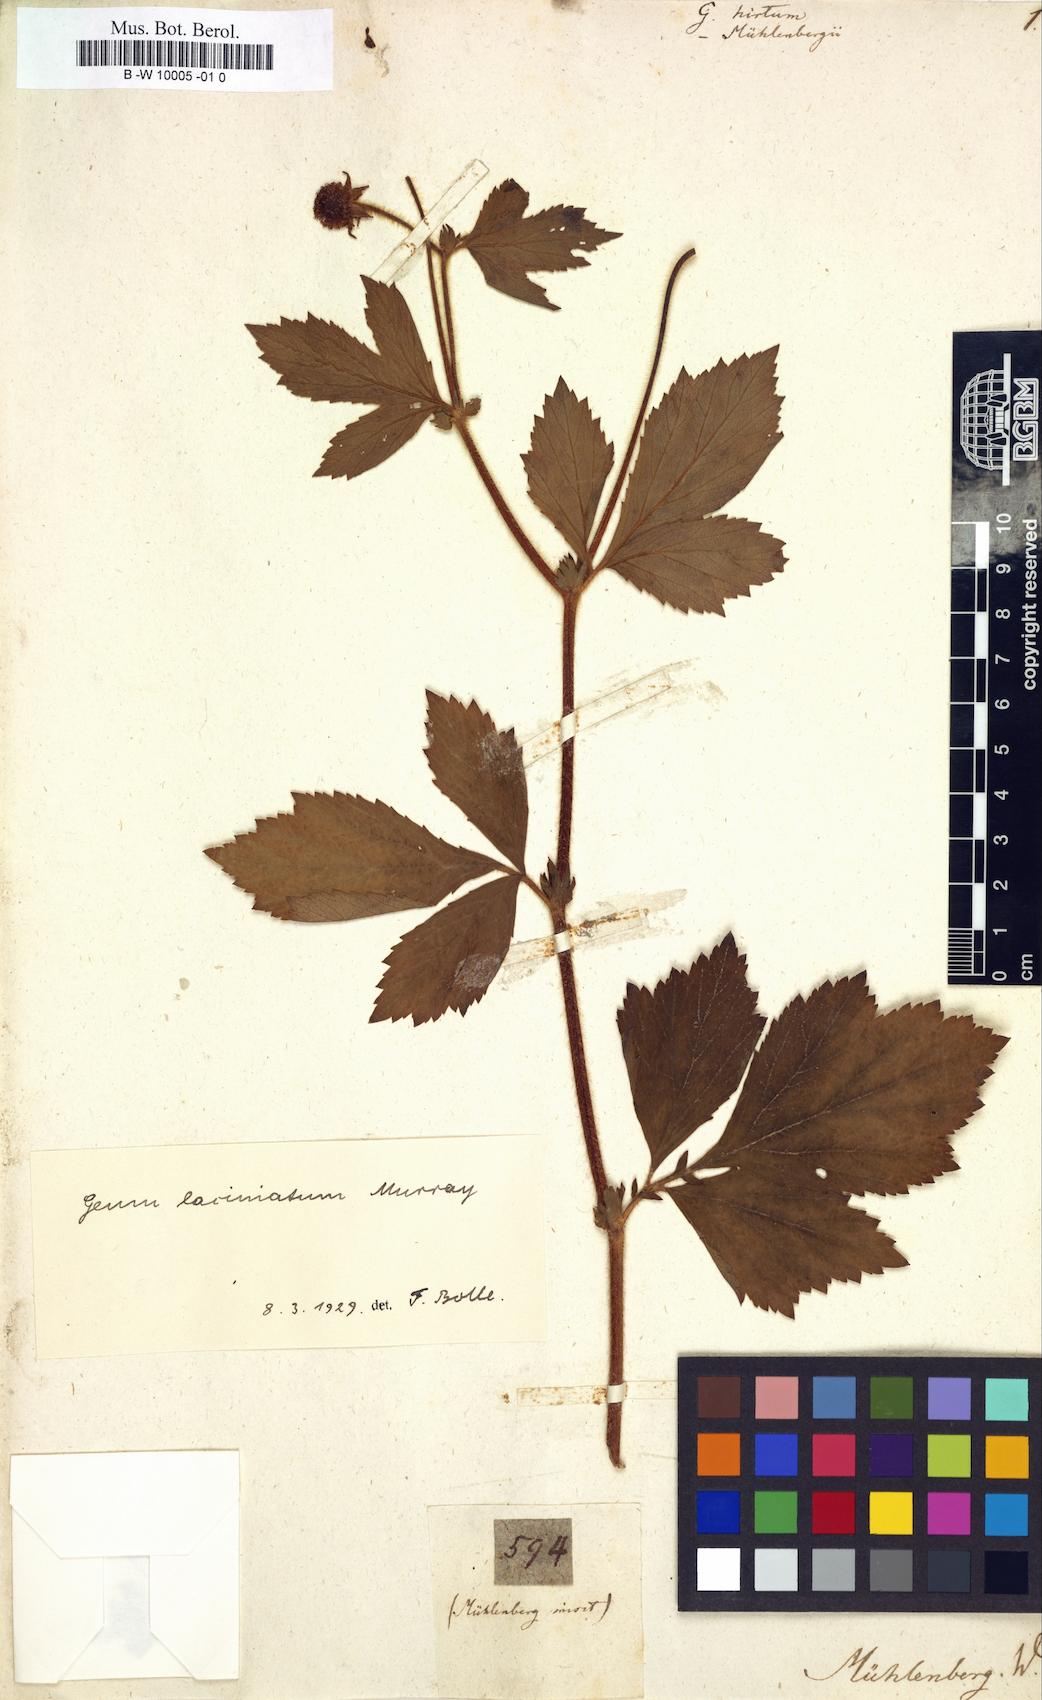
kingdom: Plantae
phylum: Tracheophyta
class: Magnoliopsida
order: Rosales
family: Rosaceae
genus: Geum
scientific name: Geum urbanum
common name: Wood avens
